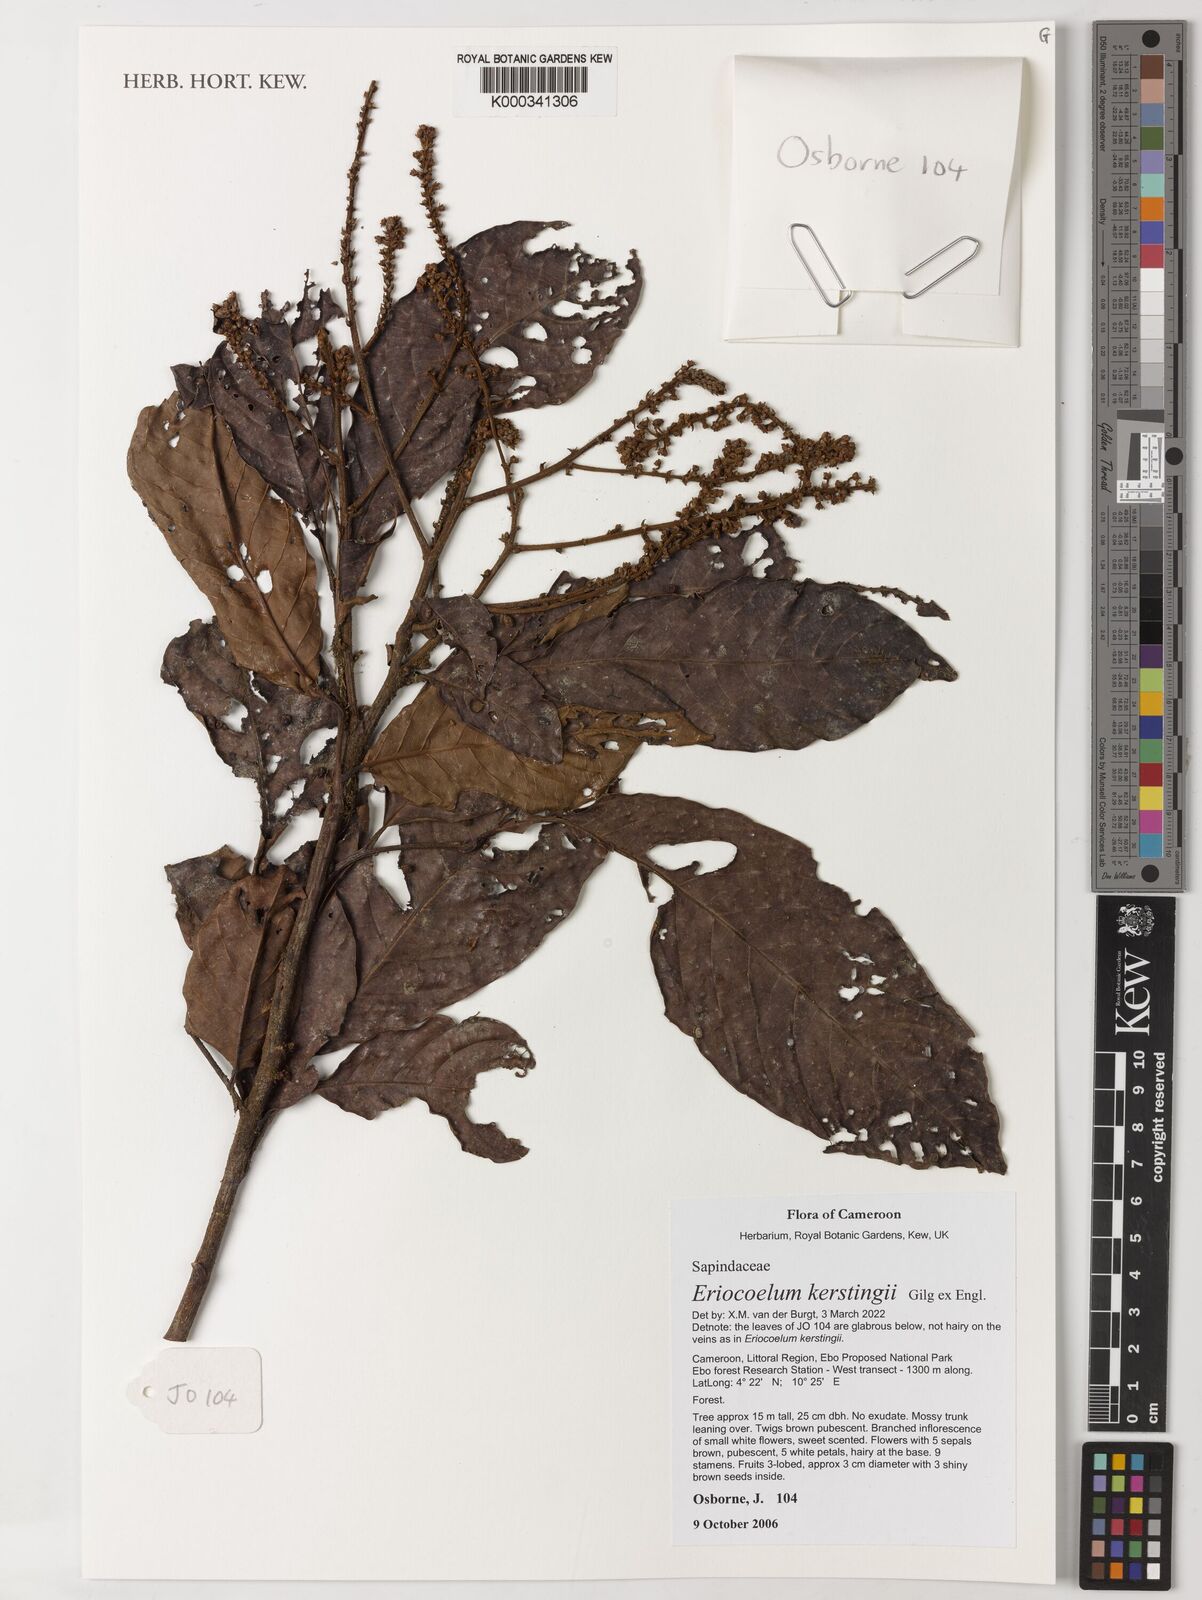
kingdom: Plantae
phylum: Tracheophyta
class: Magnoliopsida
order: Sapindales
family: Sapindaceae
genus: Eriocoelum
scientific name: Eriocoelum kerstingii
